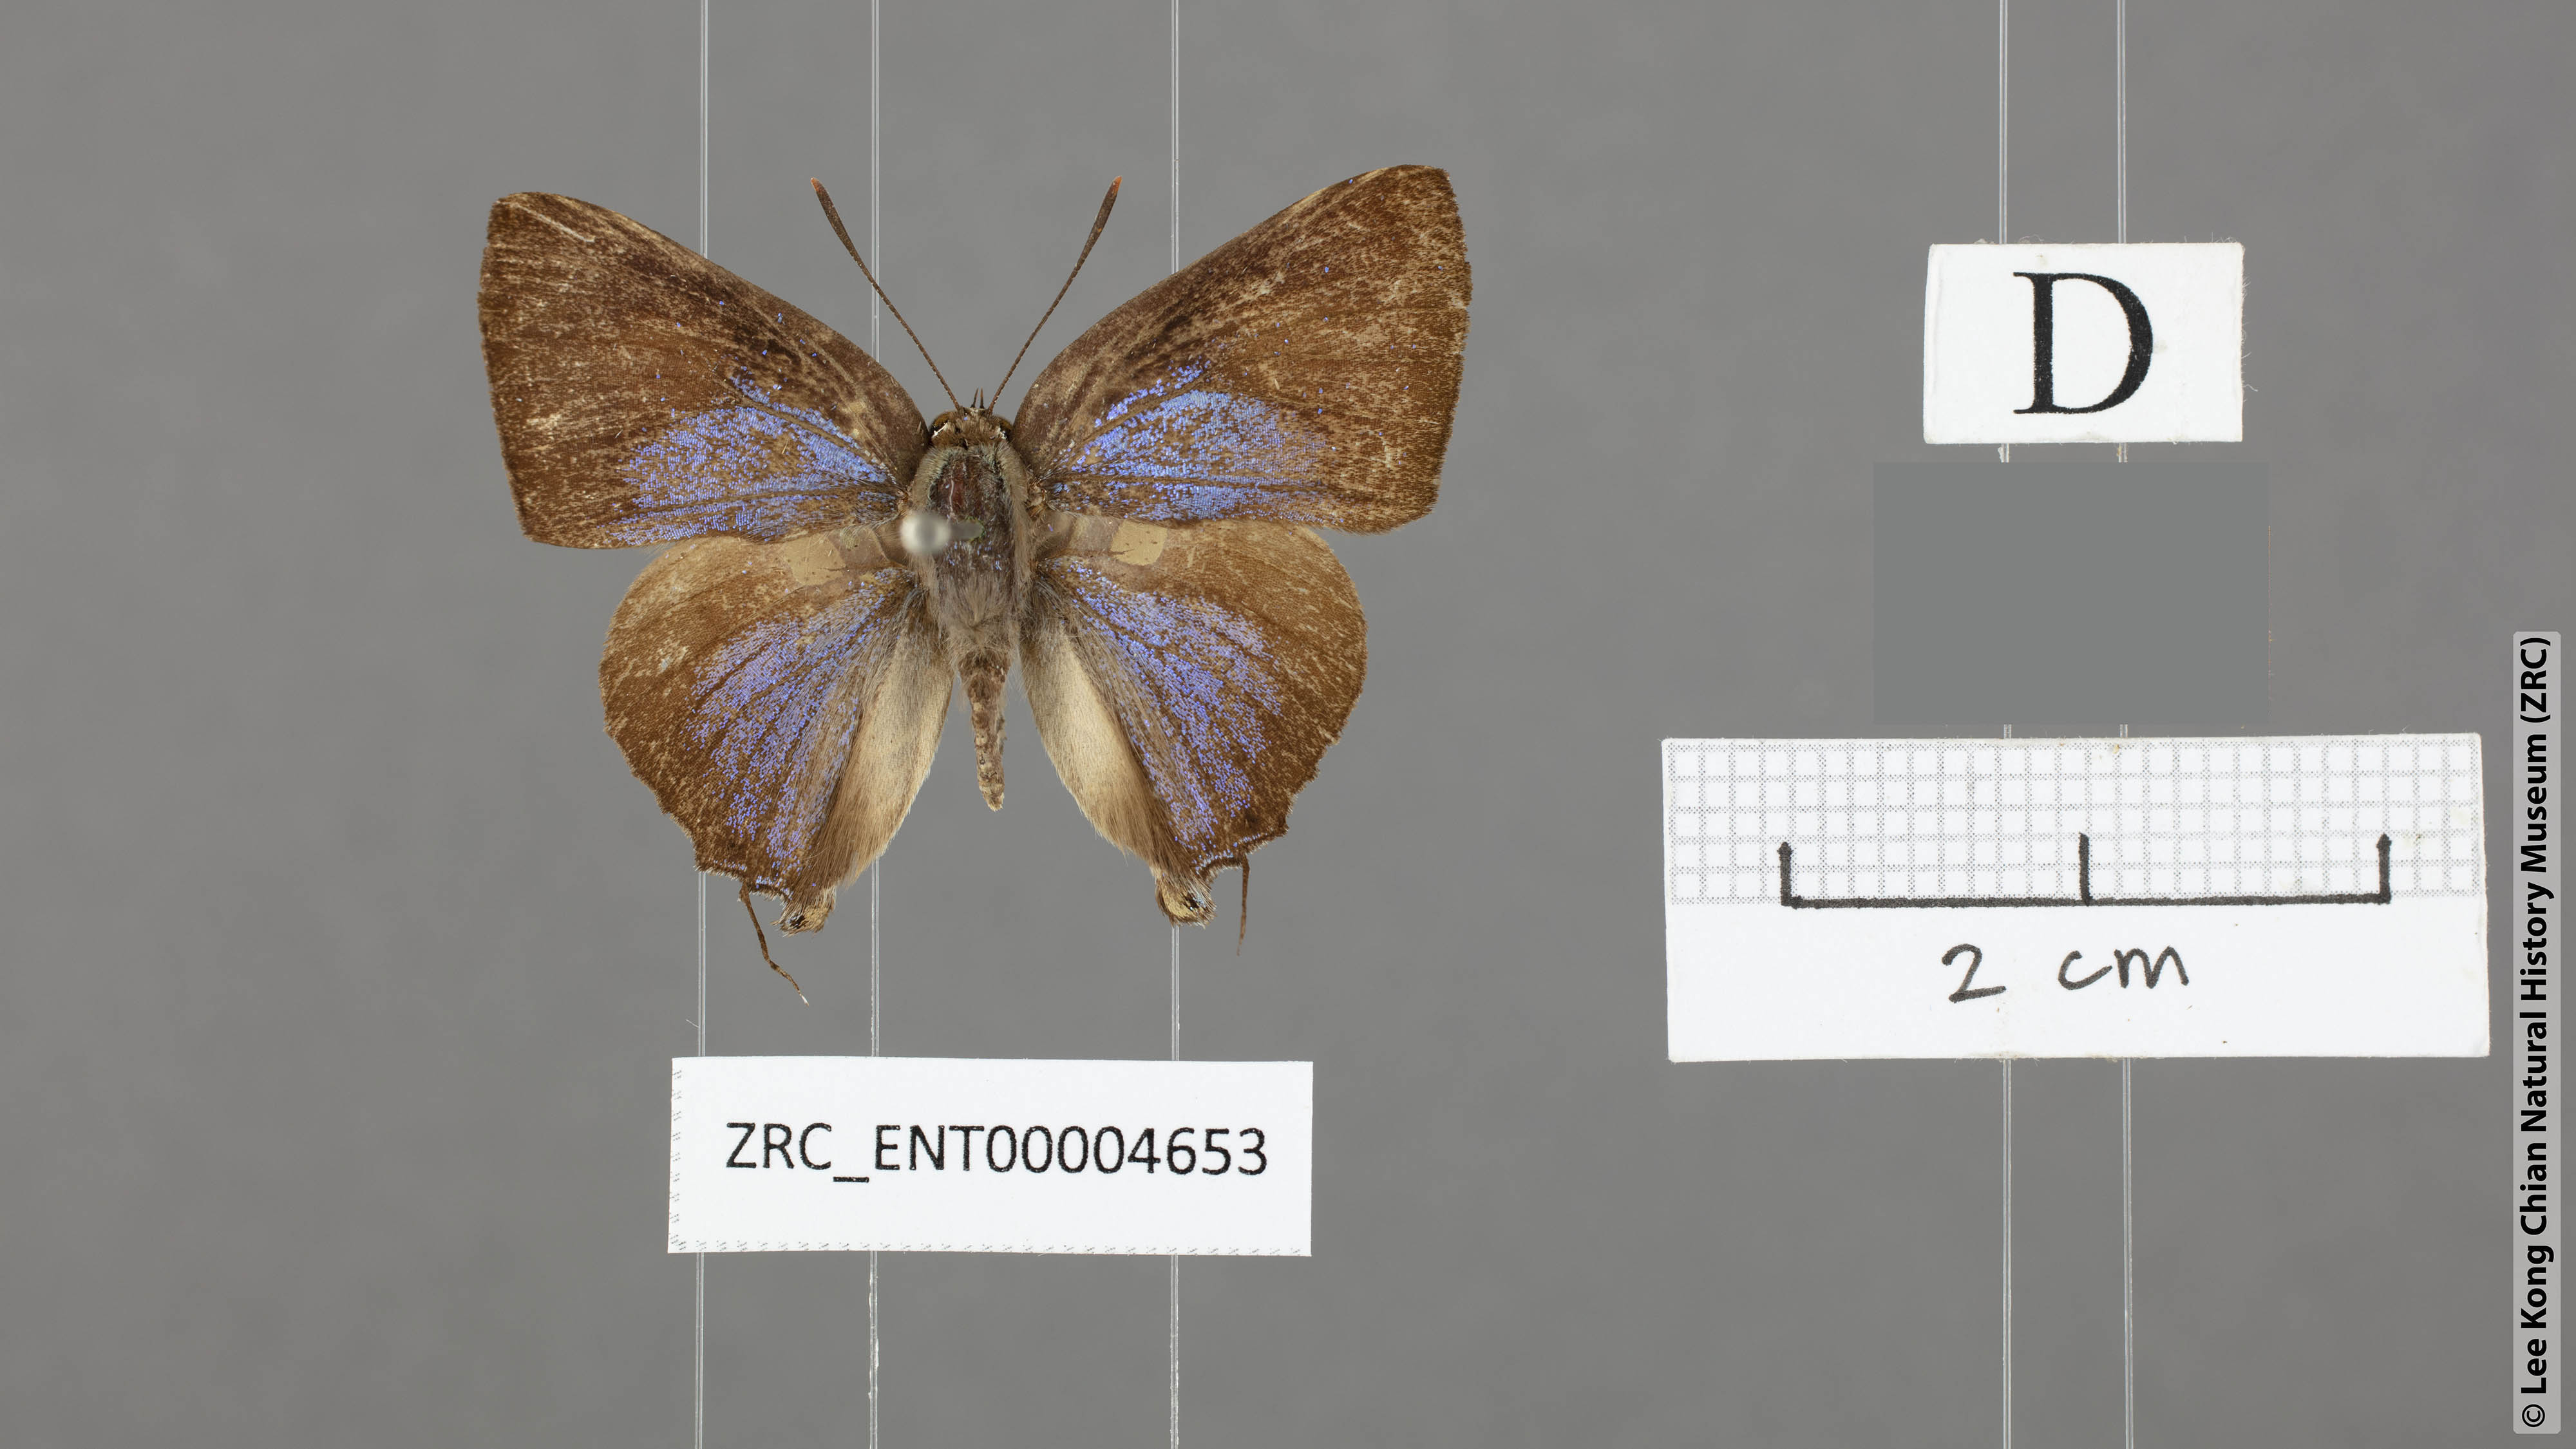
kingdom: Animalia
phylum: Arthropoda
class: Insecta
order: Lepidoptera
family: Lycaenidae
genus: Deudorix
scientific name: Deudorix smilis
